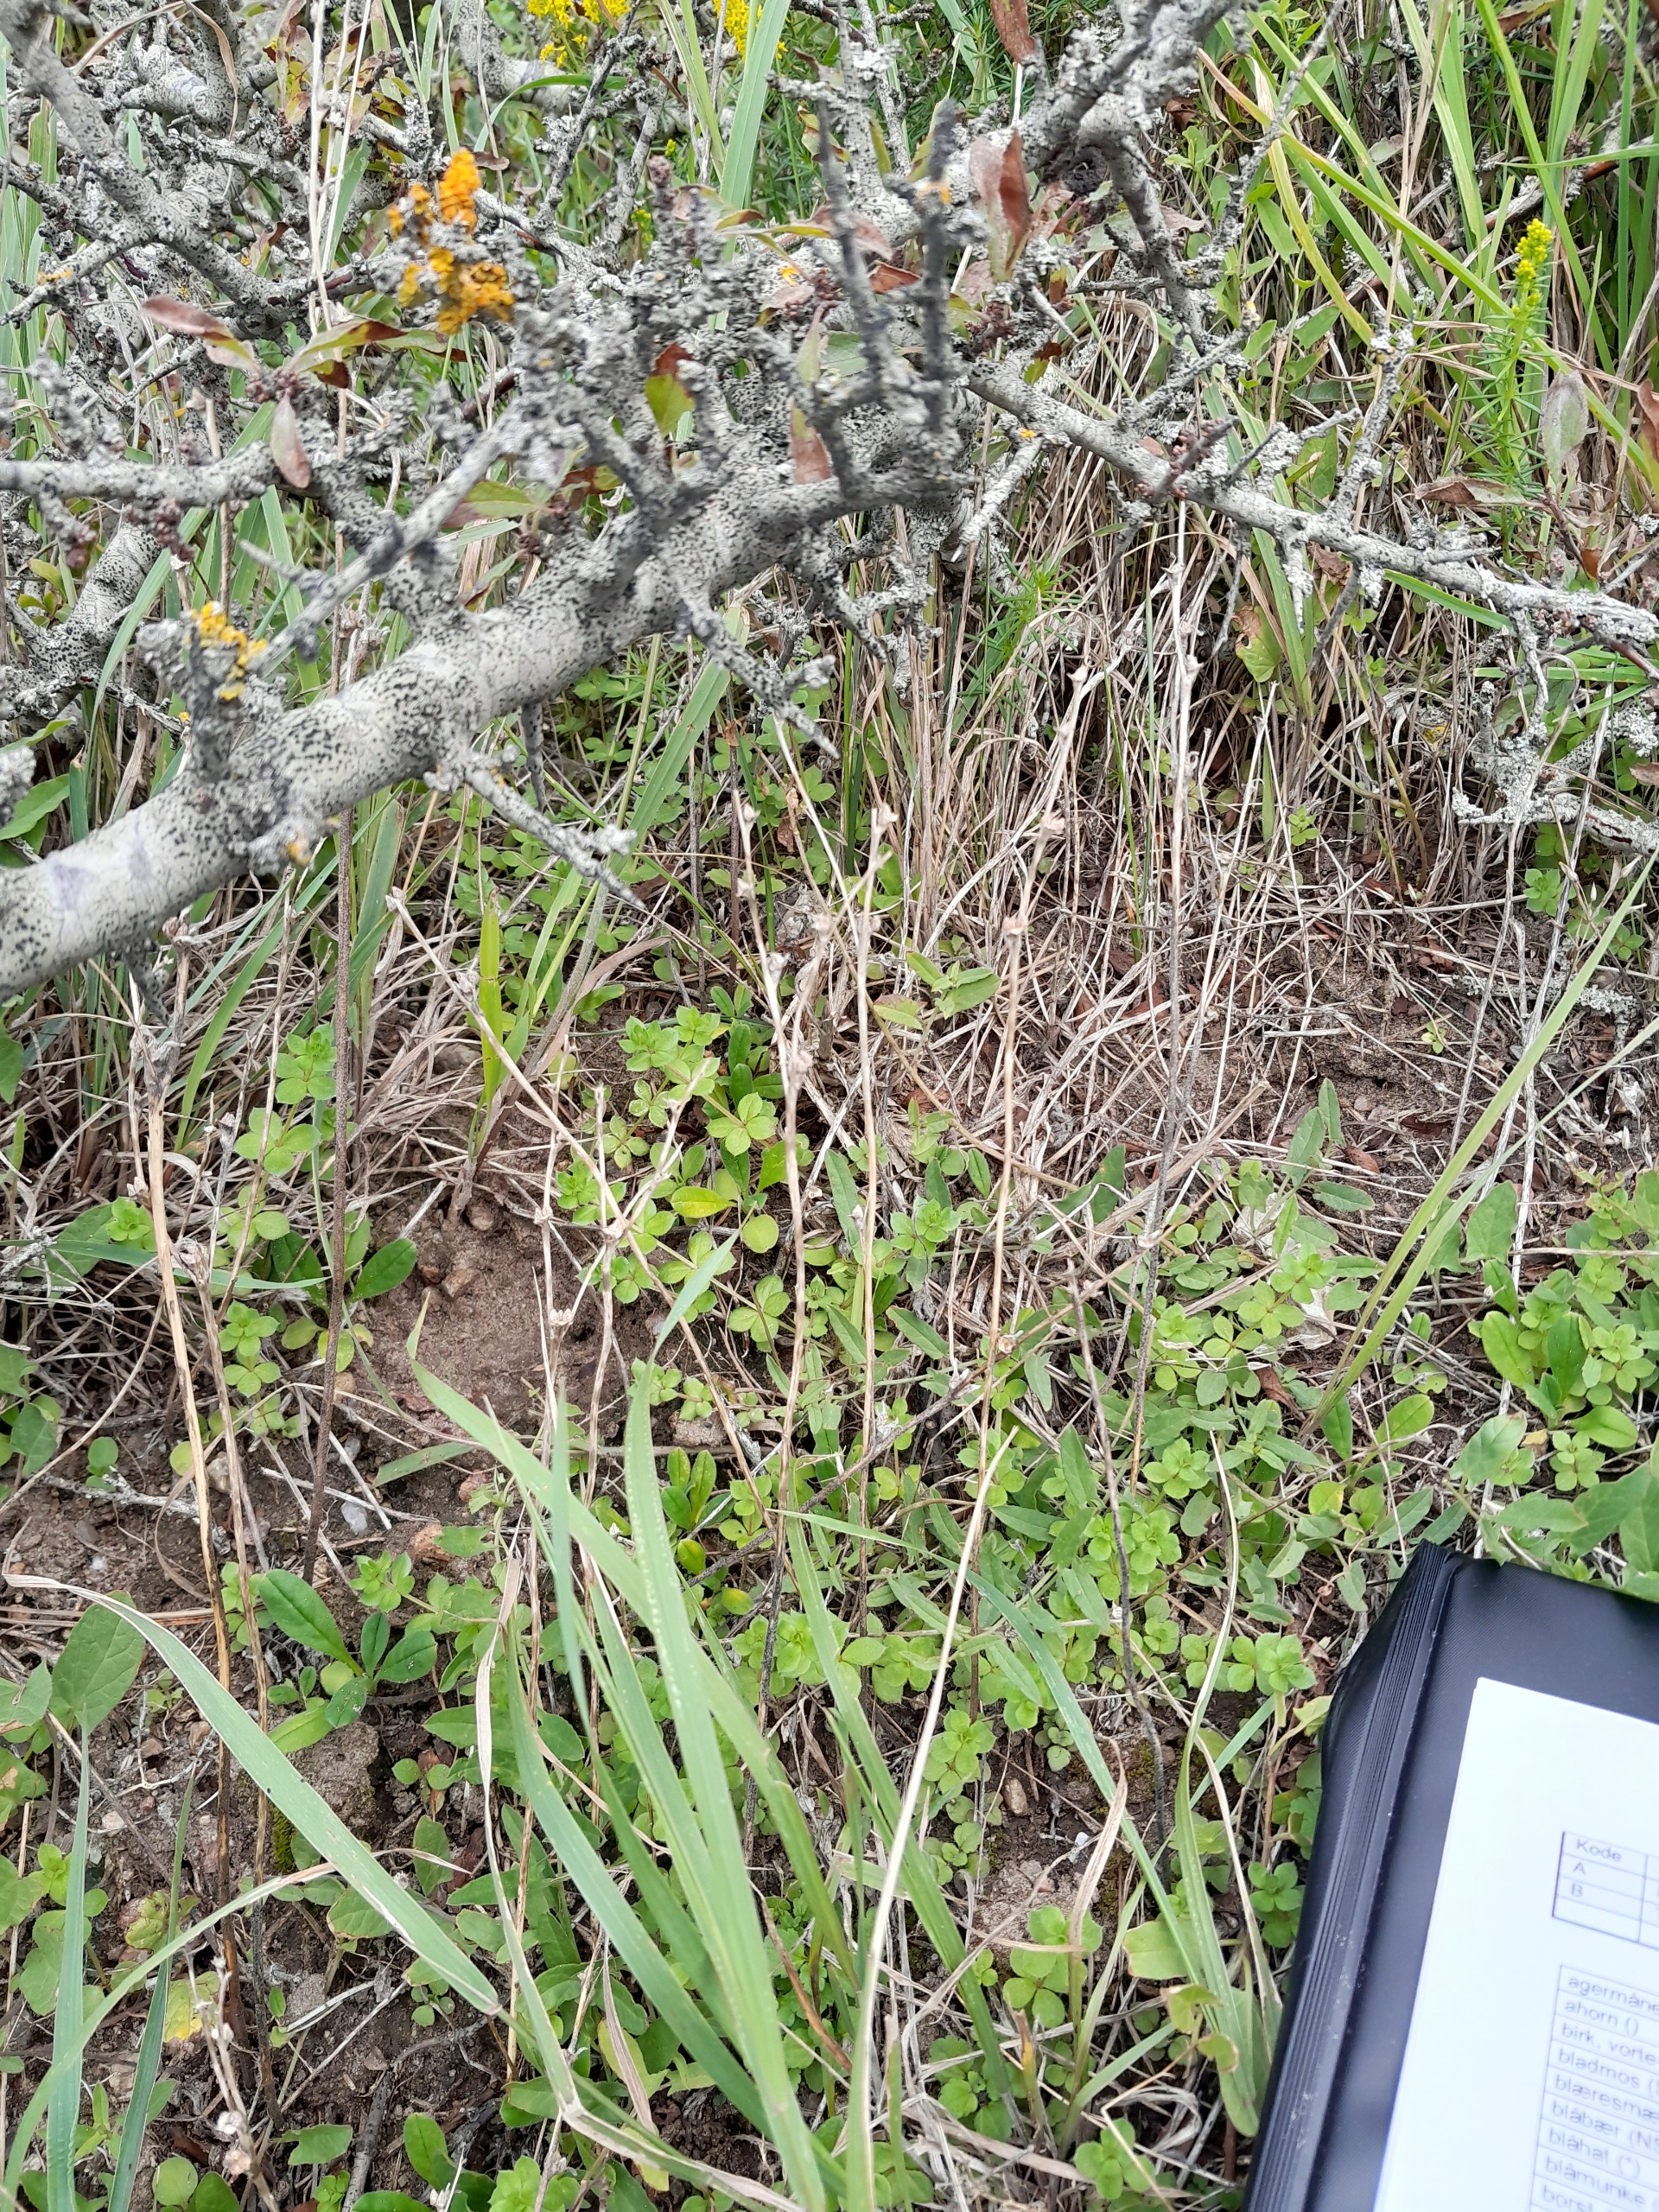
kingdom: Plantae
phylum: Tracheophyta
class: Magnoliopsida
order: Boraginales
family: Boraginaceae
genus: Buglossoides
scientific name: Buglossoides arvensis
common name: Rynket stenfrø
